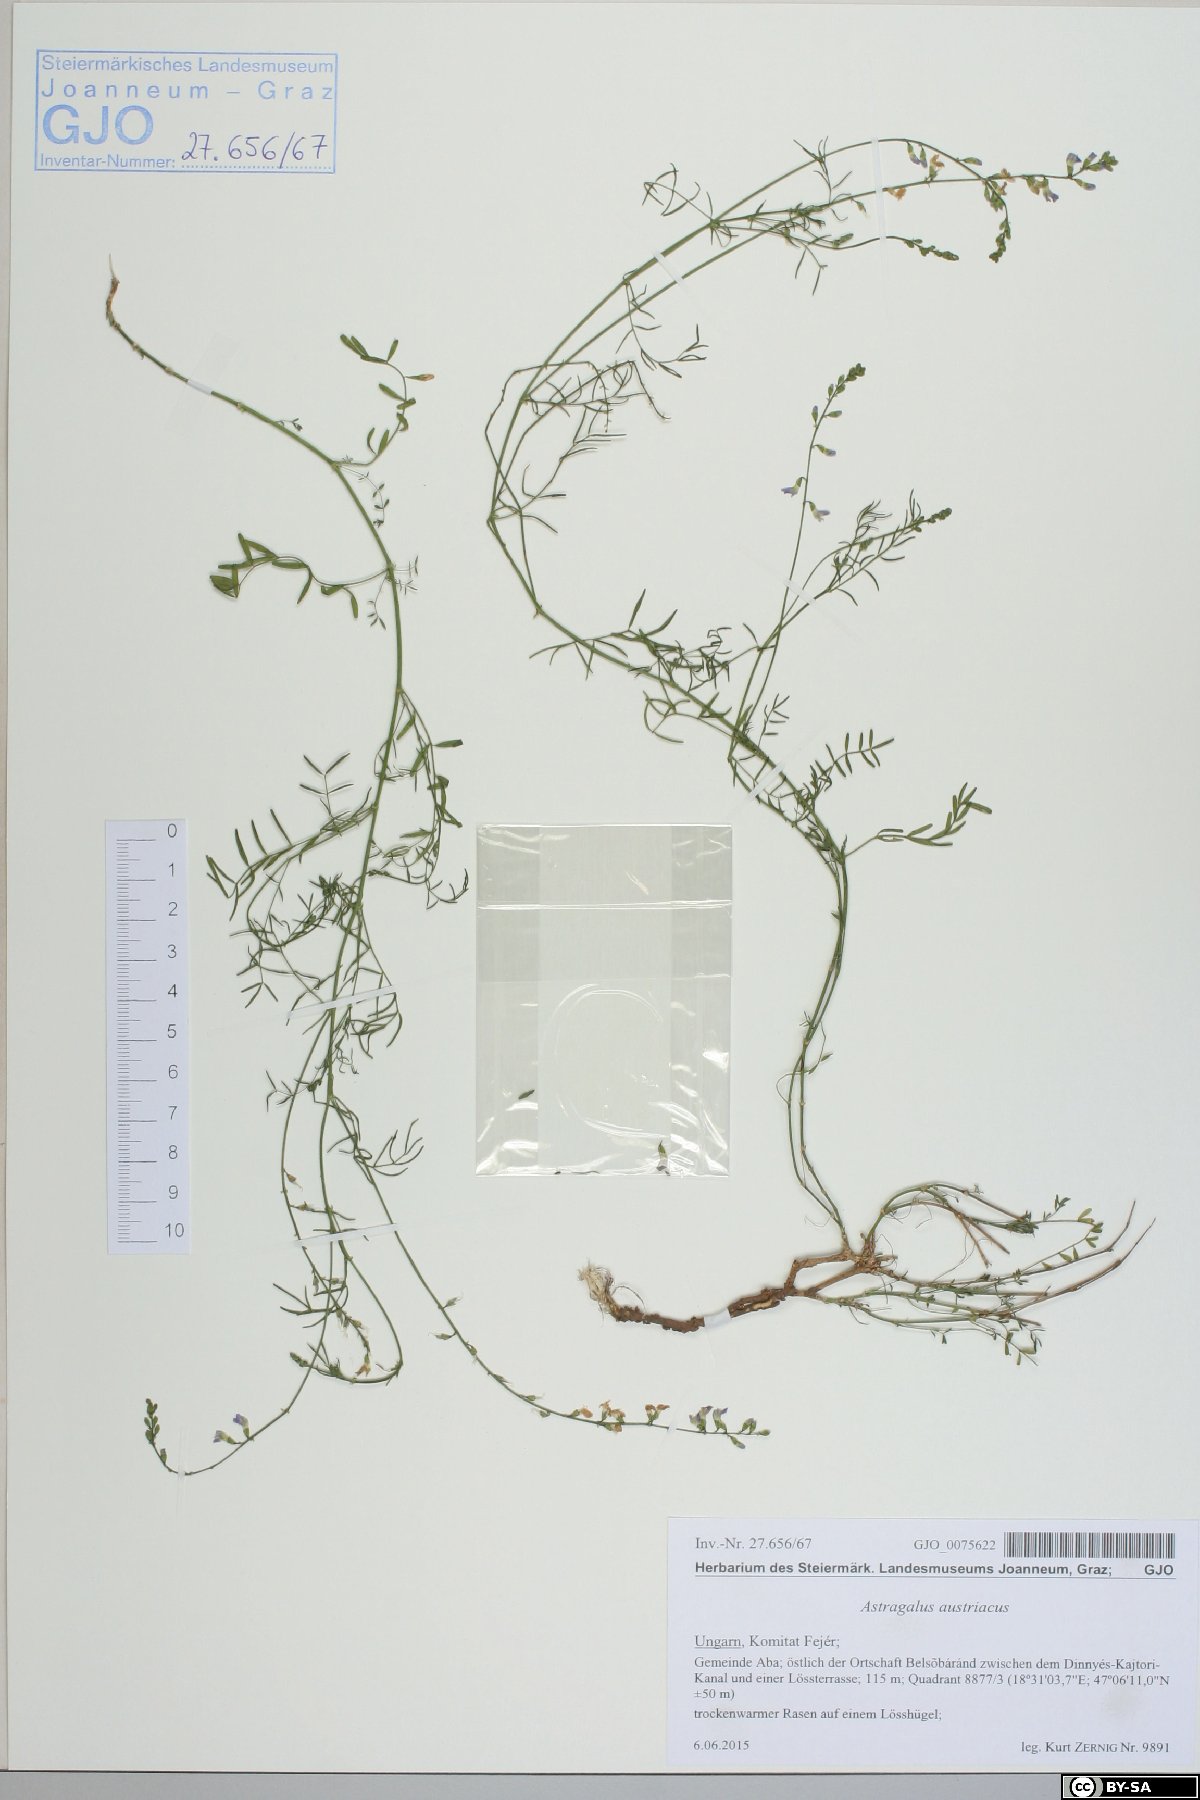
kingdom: Plantae
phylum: Tracheophyta
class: Magnoliopsida
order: Fabales
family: Fabaceae
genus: Astragalus
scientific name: Astragalus austriacus
